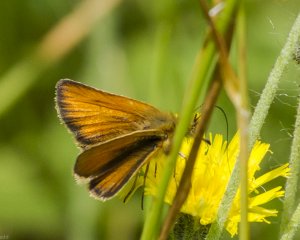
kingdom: Animalia
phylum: Arthropoda
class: Insecta
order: Lepidoptera
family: Hesperiidae
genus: Thymelicus
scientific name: Thymelicus lineola
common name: European Skipper
